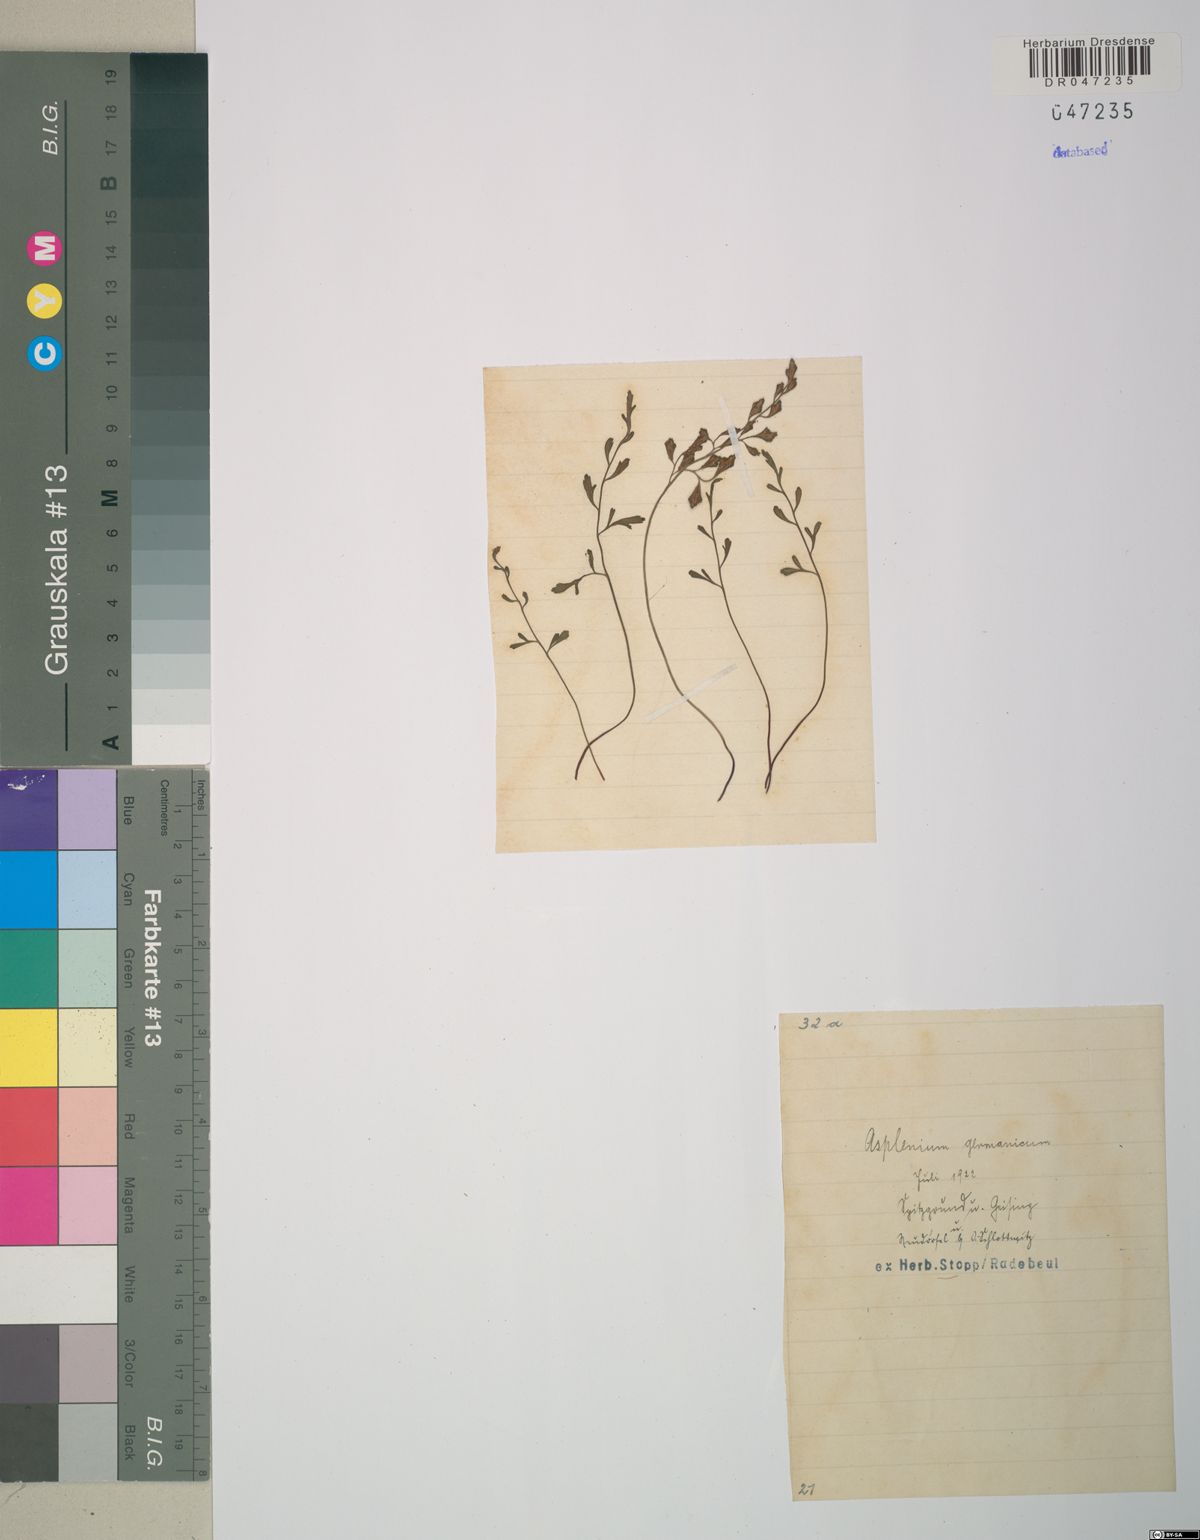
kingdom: Plantae
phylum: Tracheophyta
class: Polypodiopsida
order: Polypodiales
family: Aspleniaceae
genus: Asplenium
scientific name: Asplenium
